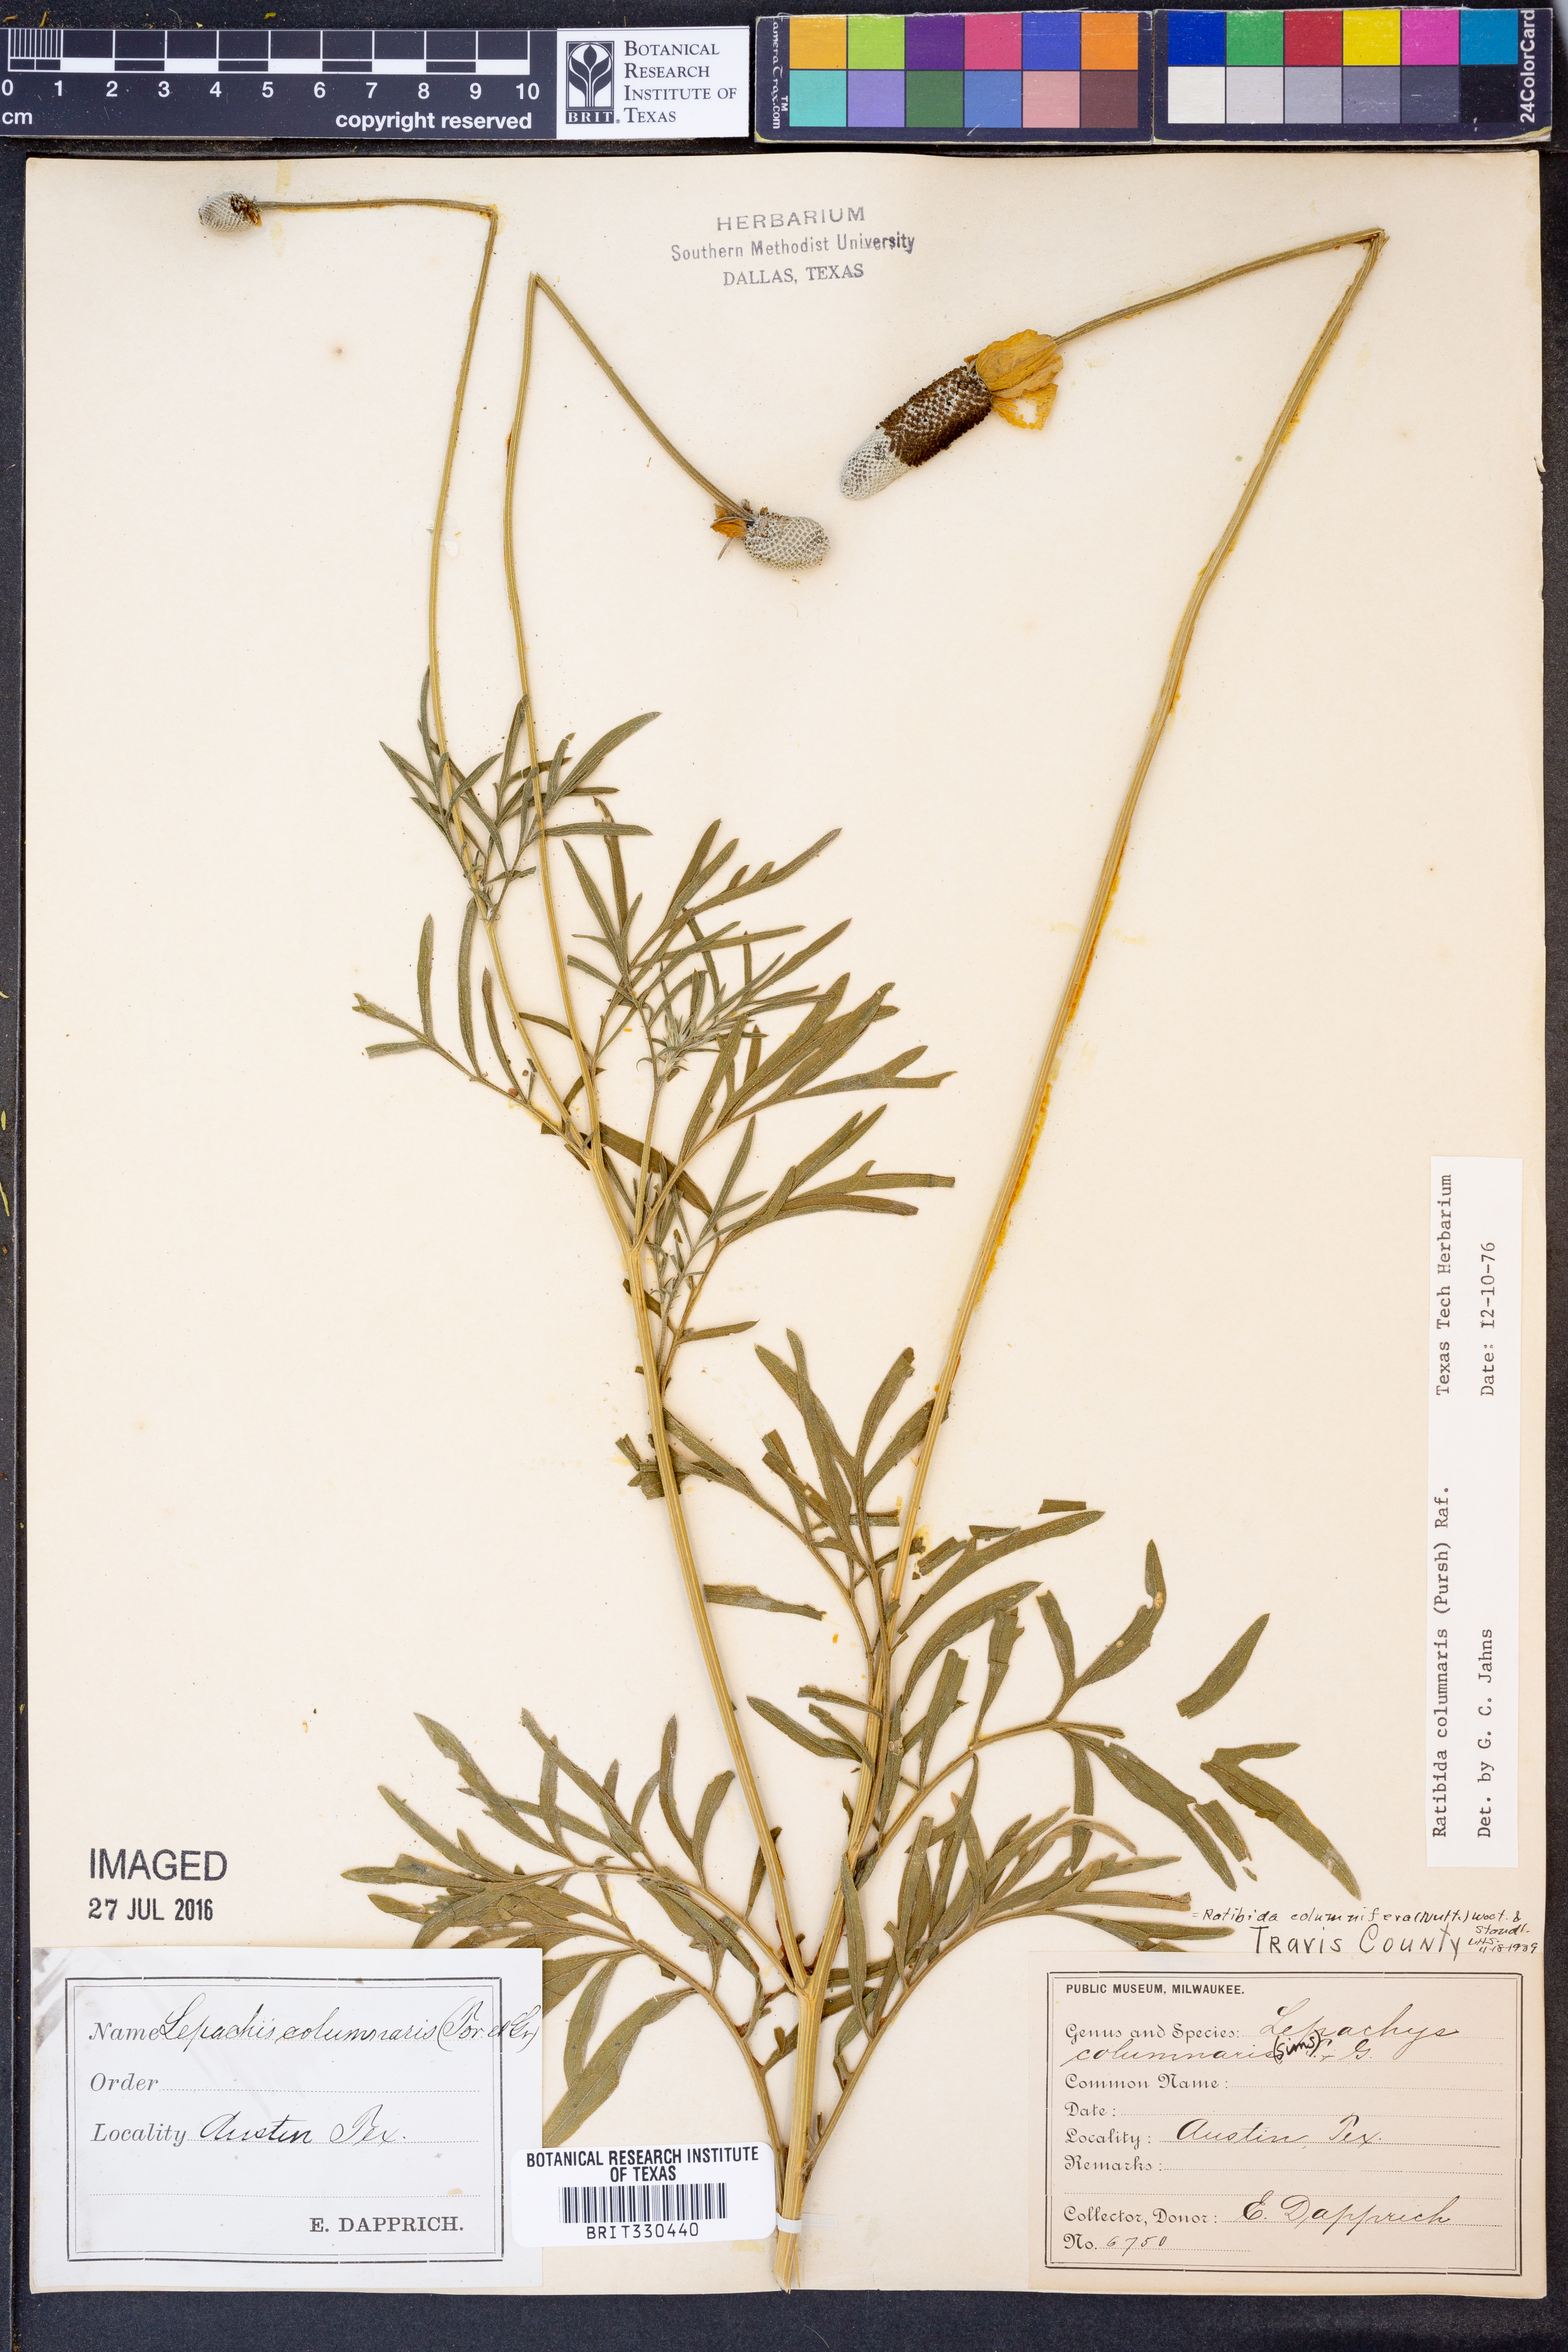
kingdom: Plantae
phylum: Tracheophyta
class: Magnoliopsida
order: Asterales
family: Asteraceae
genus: Ratibida
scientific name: Ratibida columnifera
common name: Prairie coneflower
